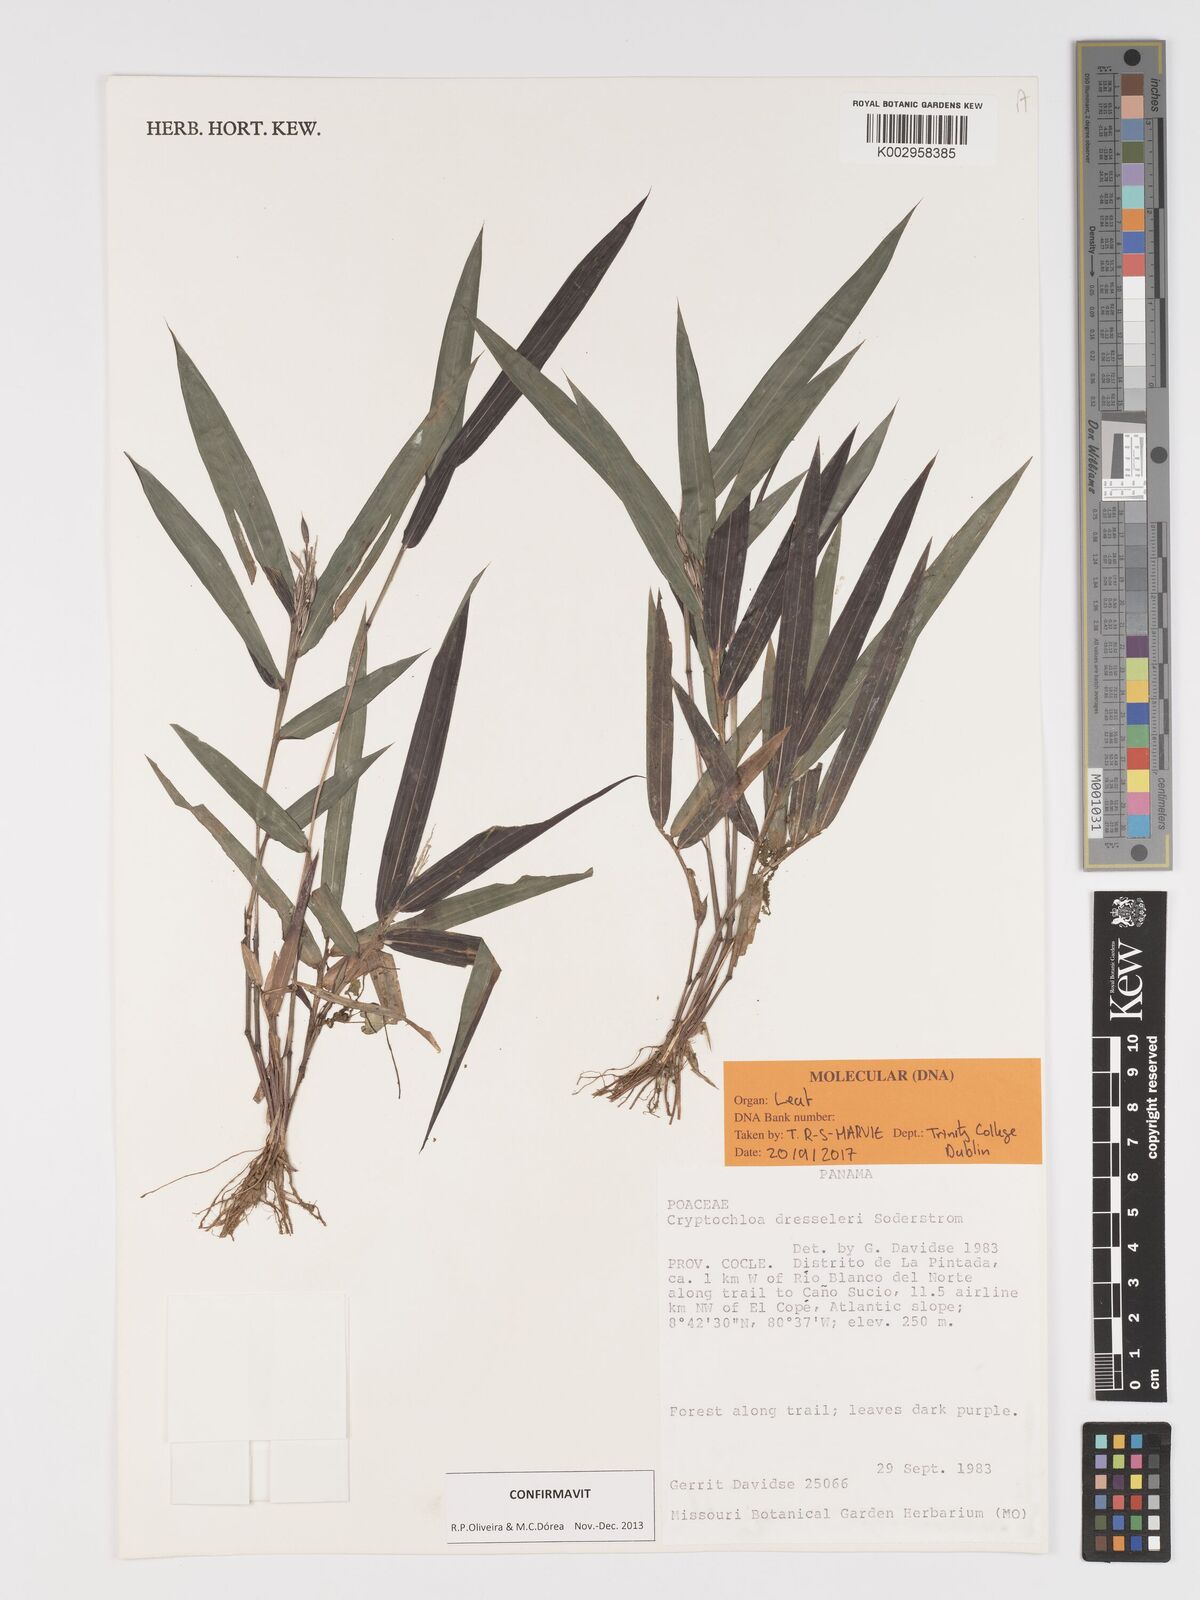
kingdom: Plantae
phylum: Tracheophyta
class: Liliopsida
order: Poales
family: Poaceae
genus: Cryptochloa
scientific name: Cryptochloa dressleri
